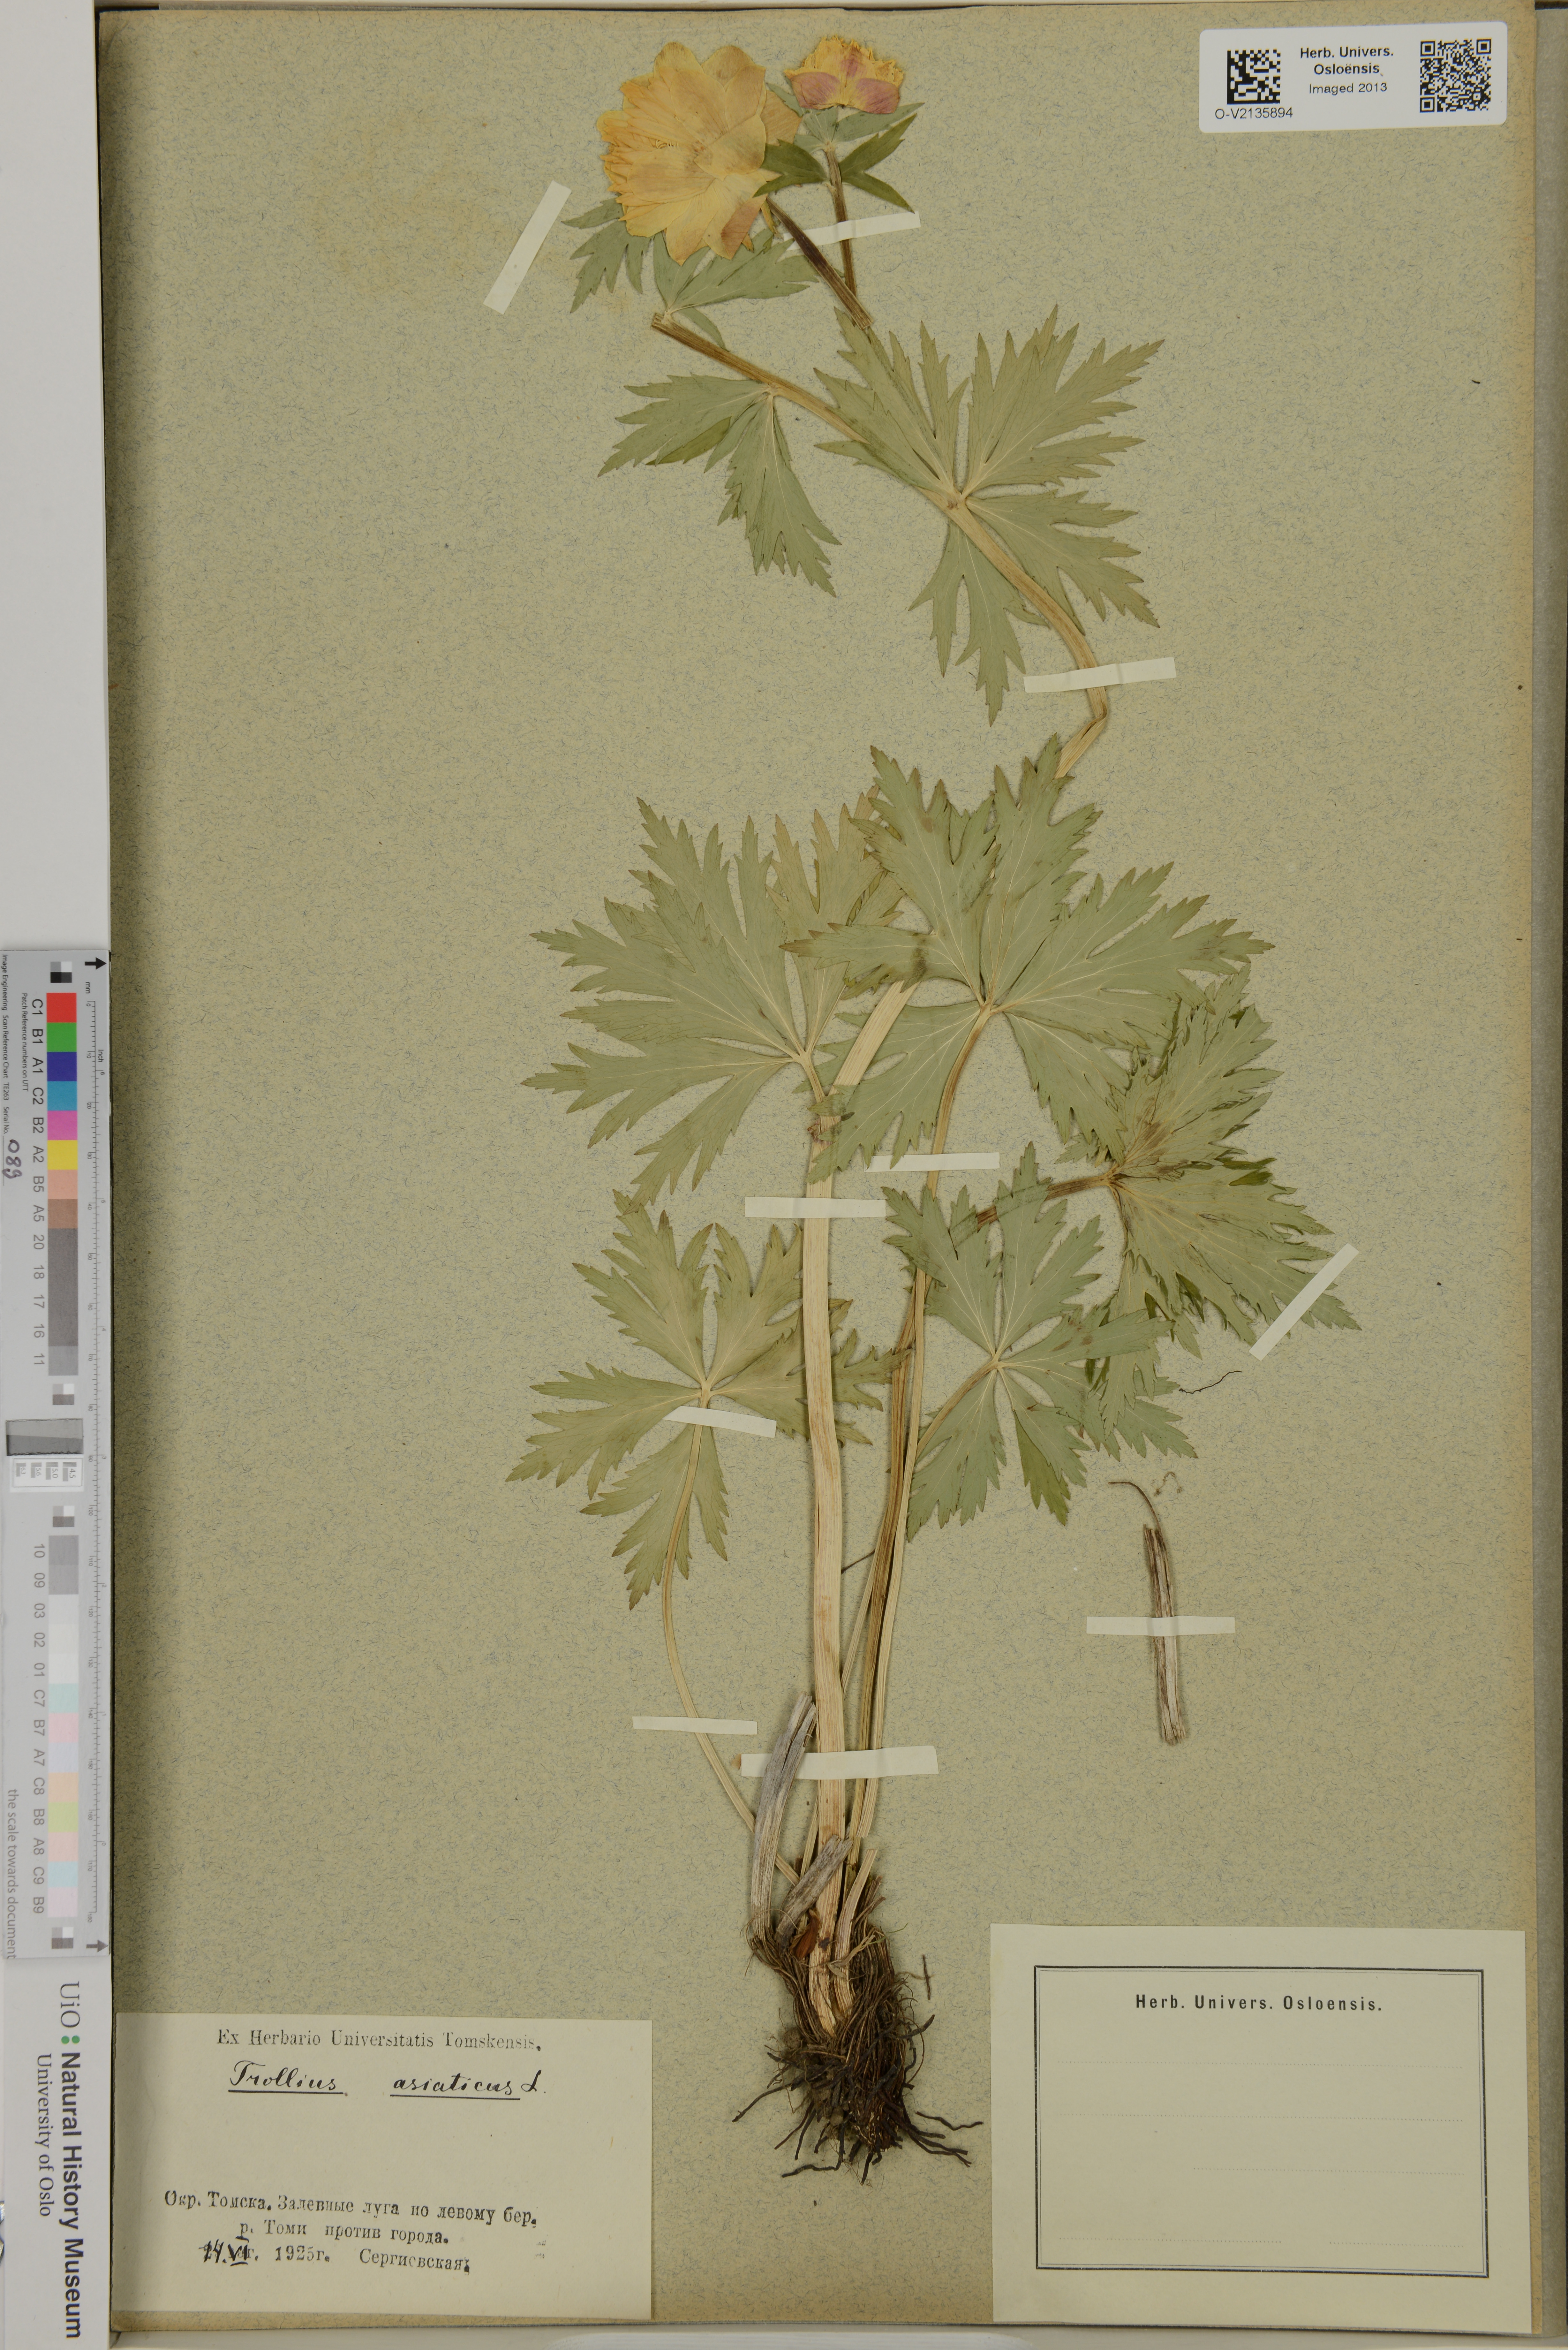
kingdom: Plantae
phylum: Tracheophyta
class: Magnoliopsida
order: Ranunculales
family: Ranunculaceae
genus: Trollius
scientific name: Trollius asiaticus
